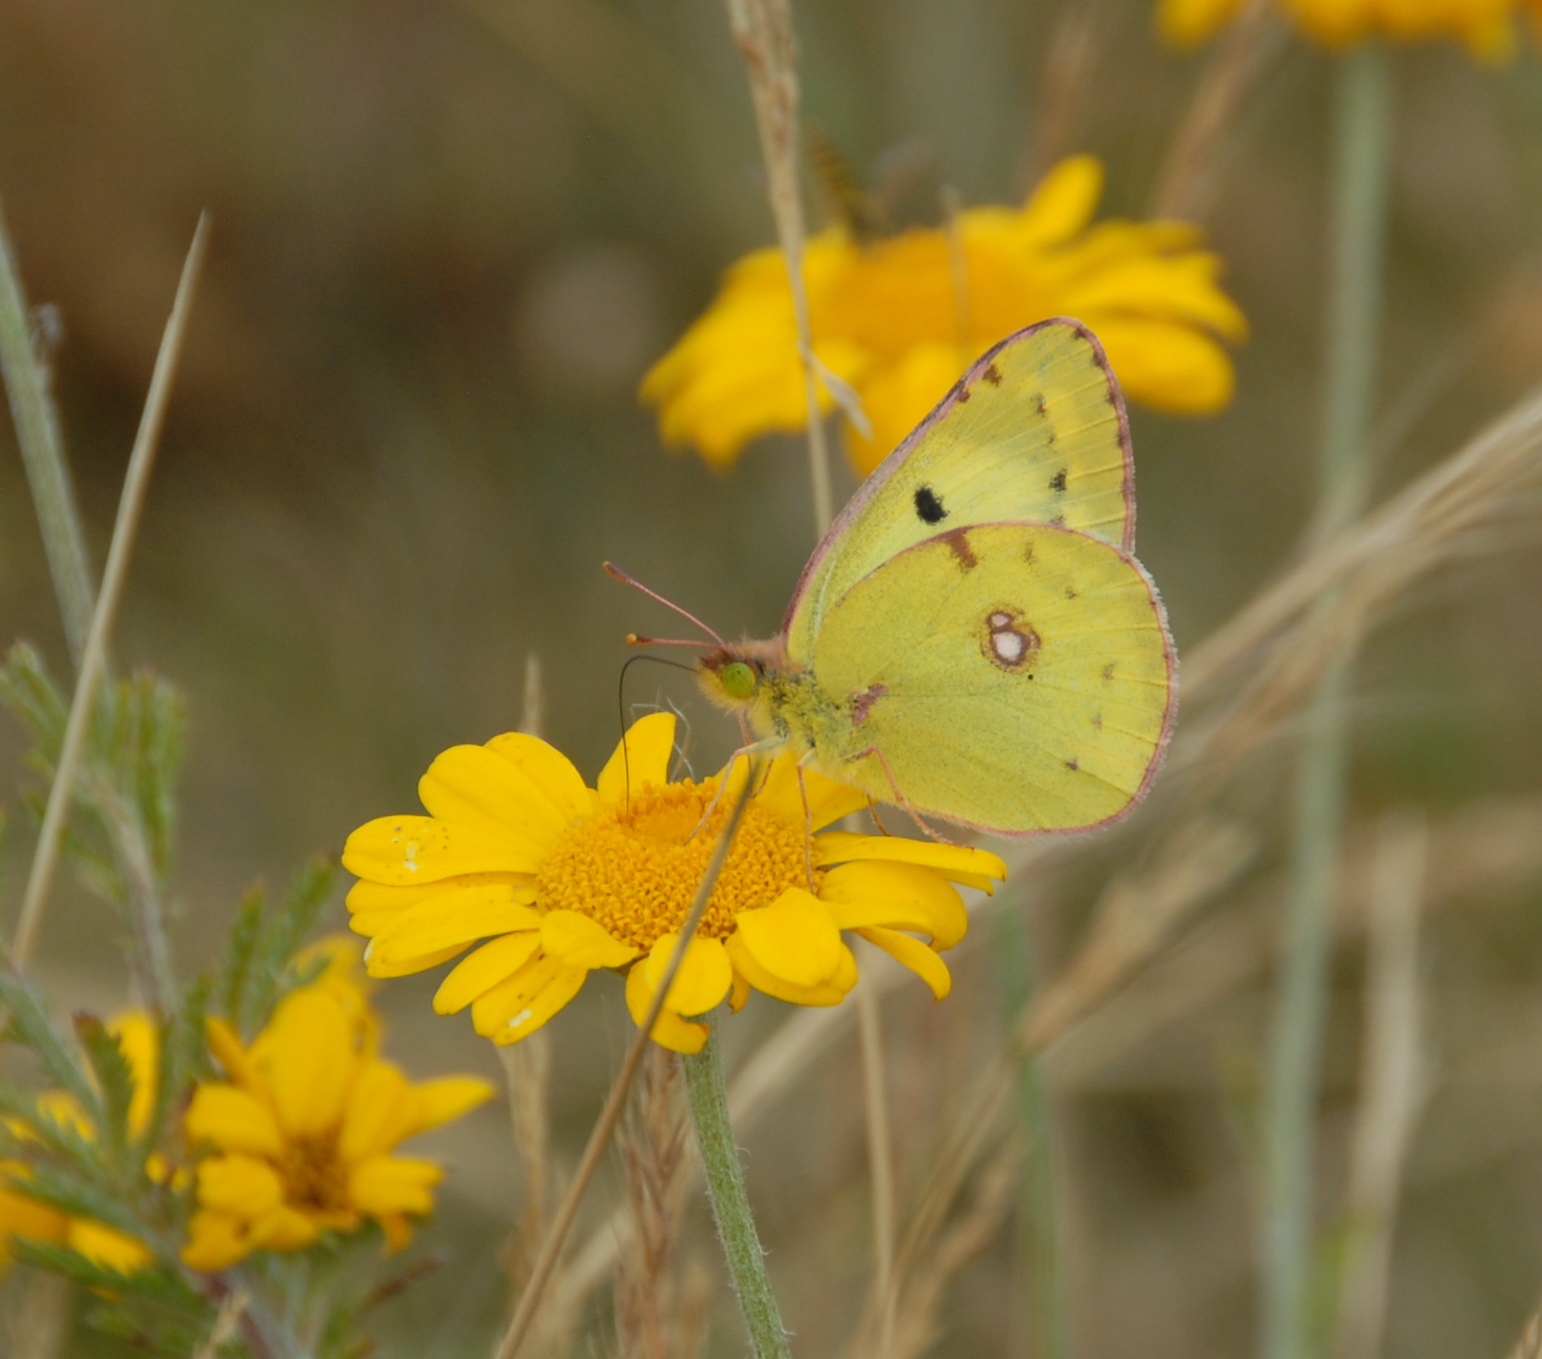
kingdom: Animalia
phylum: Arthropoda
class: Insecta
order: Lepidoptera
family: Pieridae
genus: Colias
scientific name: Colias hyale
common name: Gul høsommerfugl
